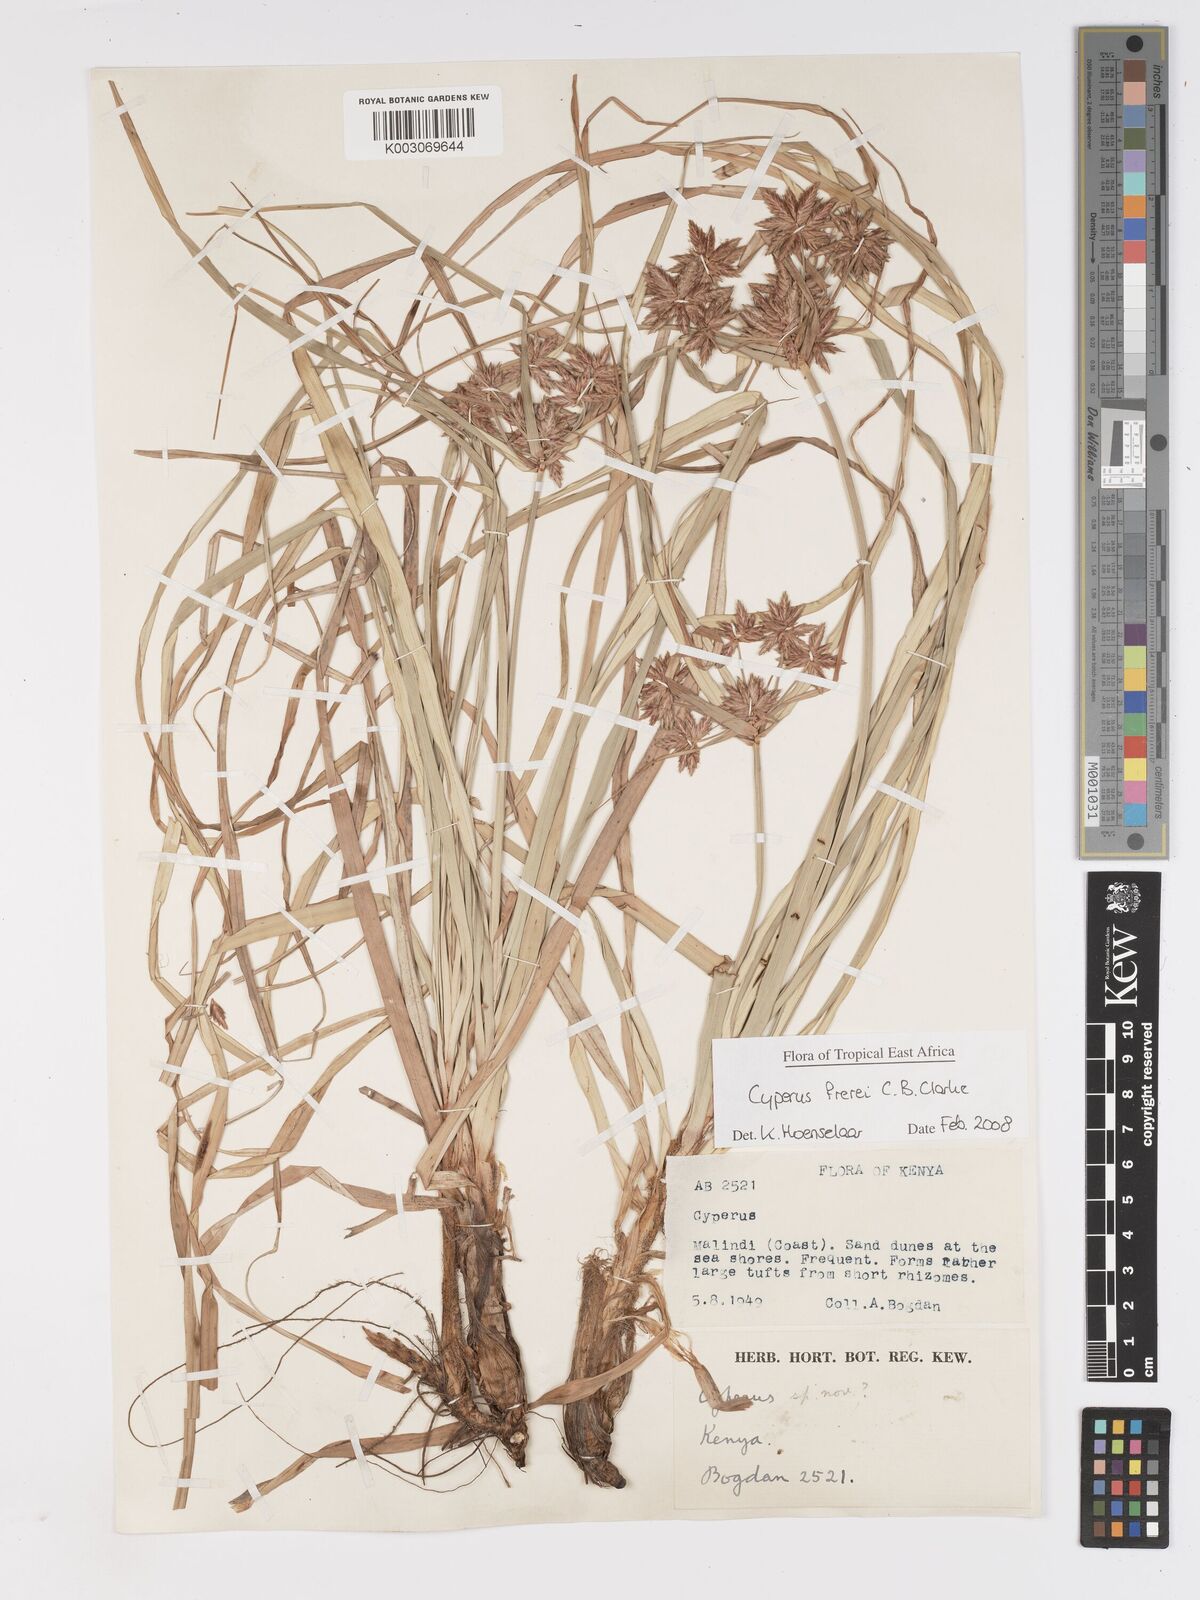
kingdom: Plantae
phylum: Tracheophyta
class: Liliopsida
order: Poales
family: Cyperaceae
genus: Cyperus
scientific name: Cyperus crassipes
